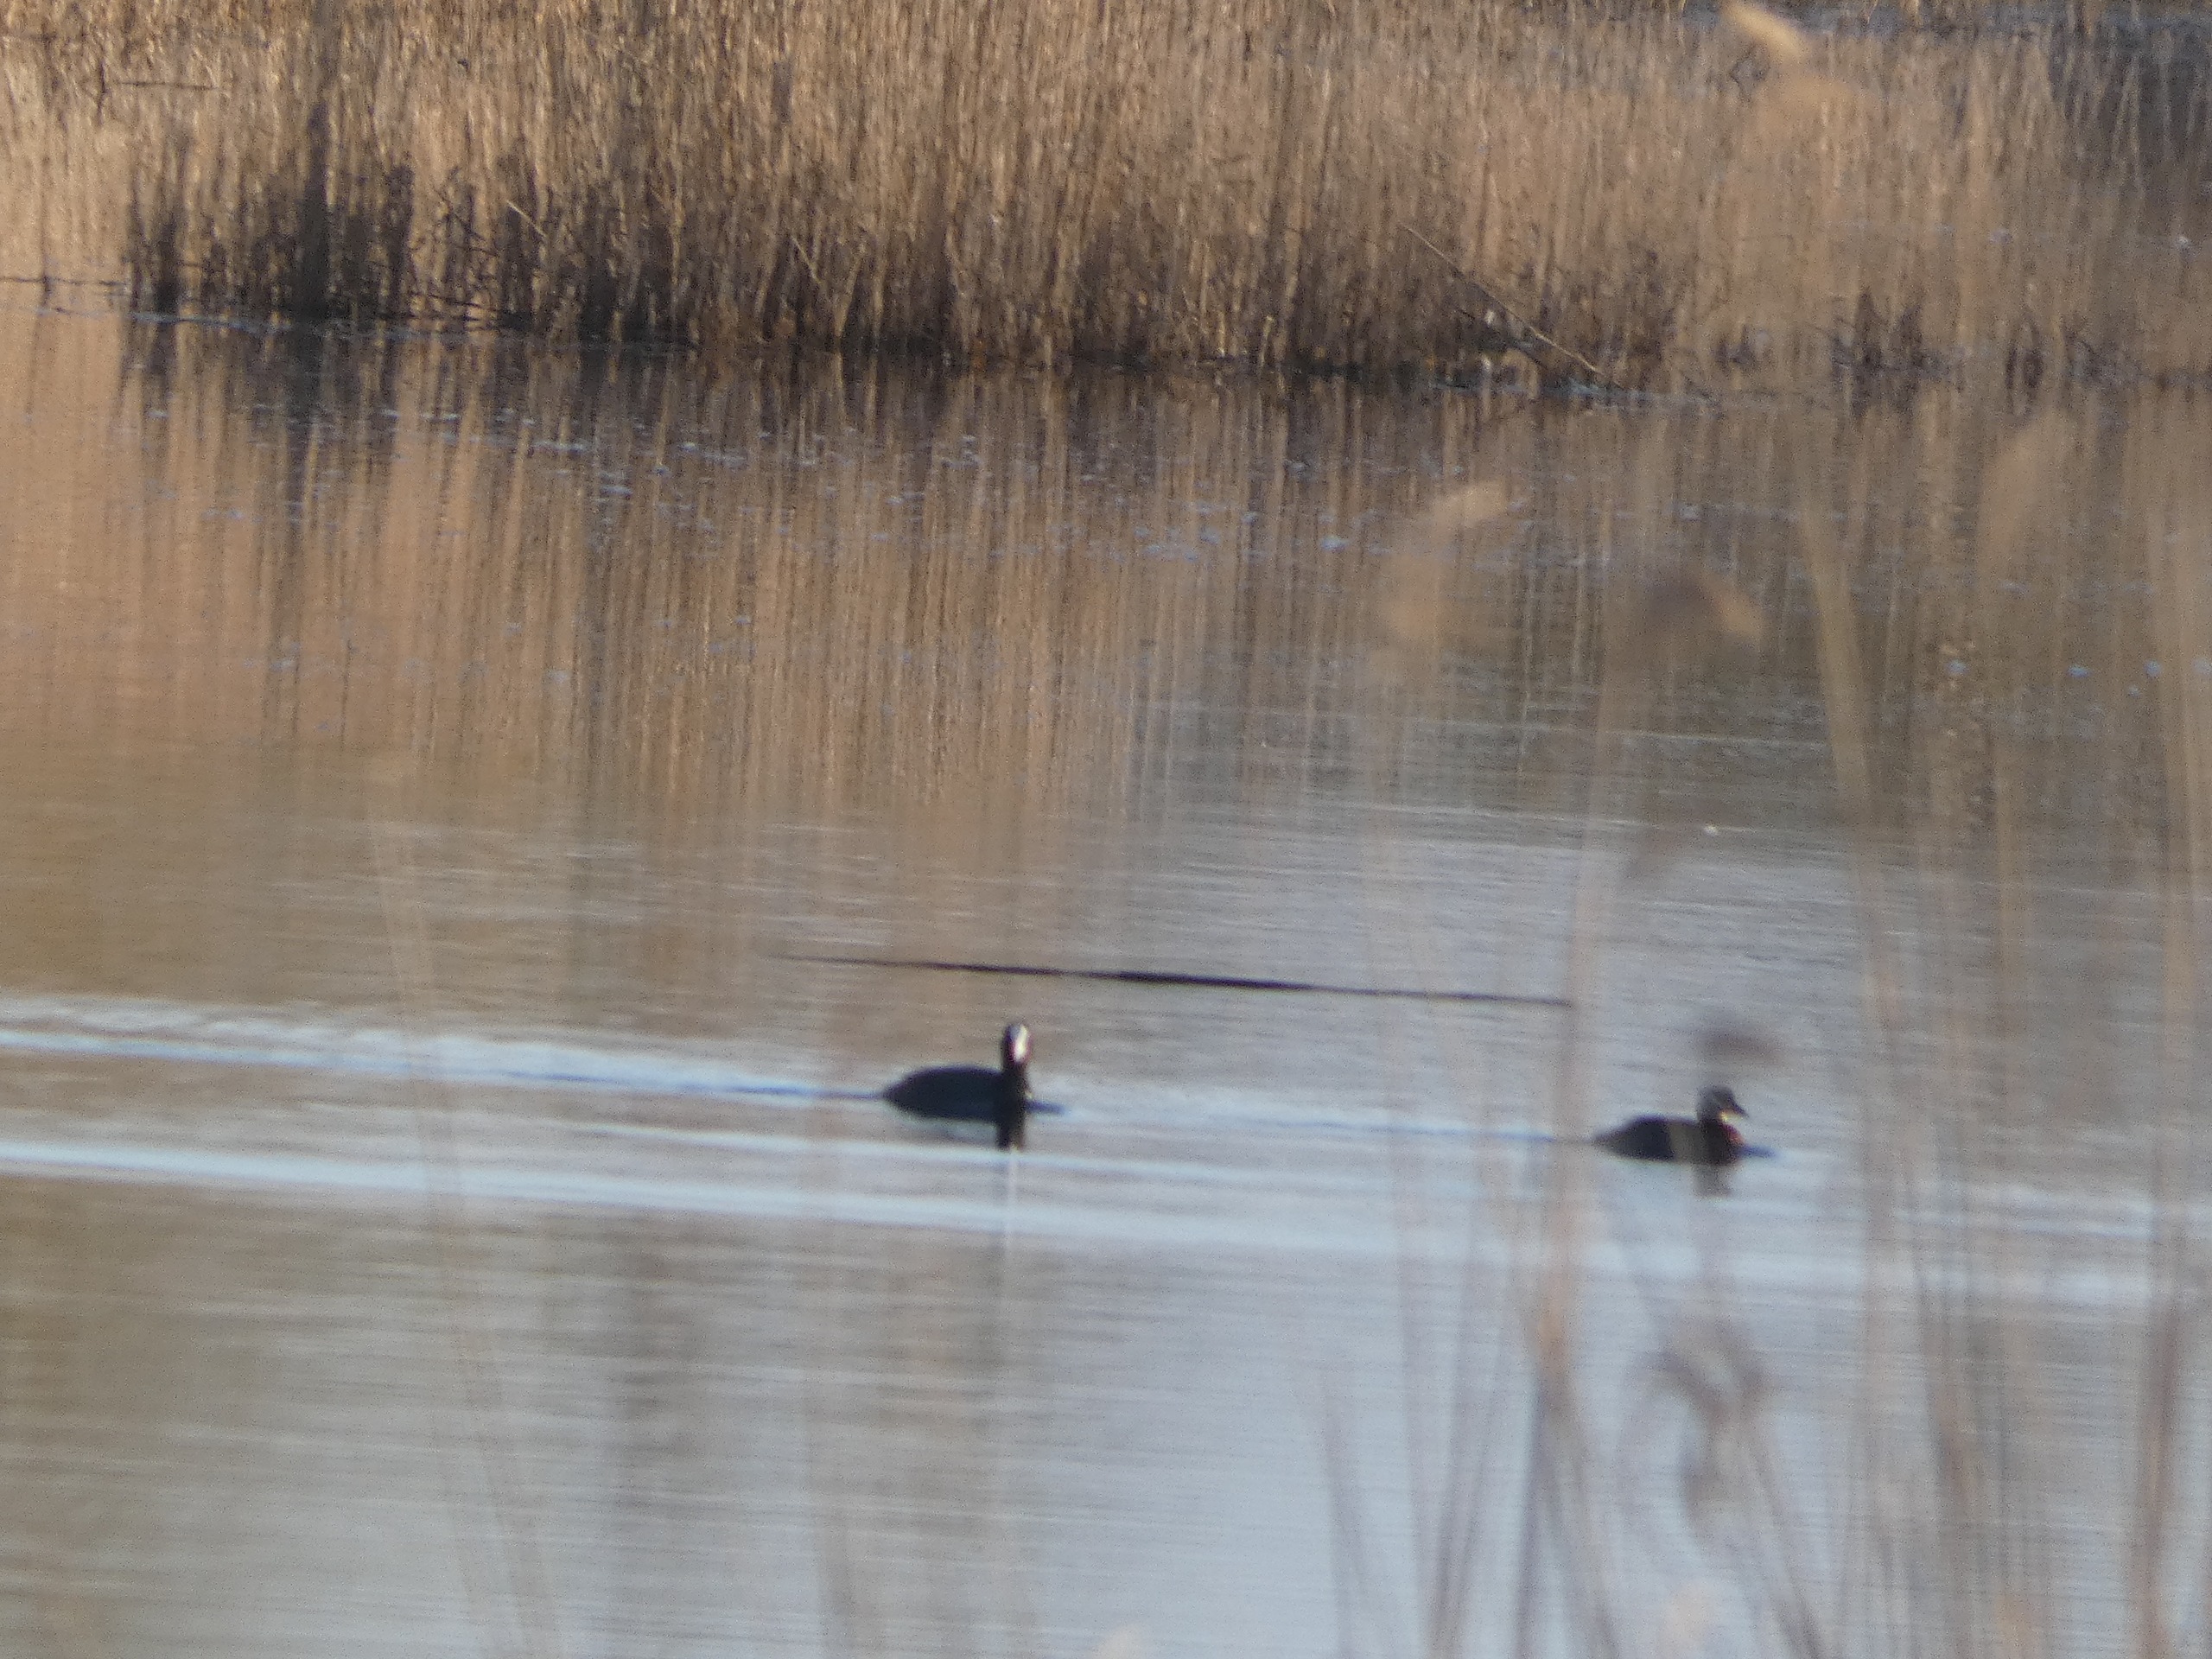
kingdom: Animalia
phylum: Chordata
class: Aves
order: Gruiformes
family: Rallidae
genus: Fulica
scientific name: Fulica atra
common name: Blishøne
